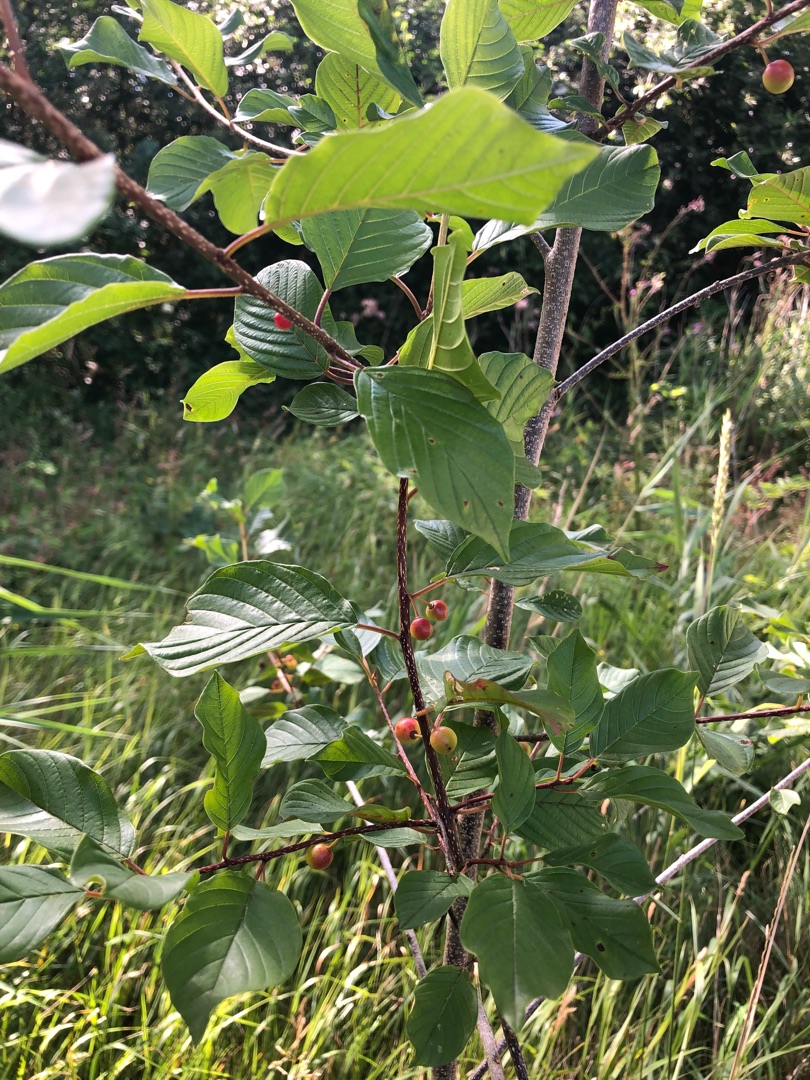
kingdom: Plantae
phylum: Tracheophyta
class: Magnoliopsida
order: Rosales
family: Rhamnaceae
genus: Frangula
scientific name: Frangula alnus
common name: Tørst
